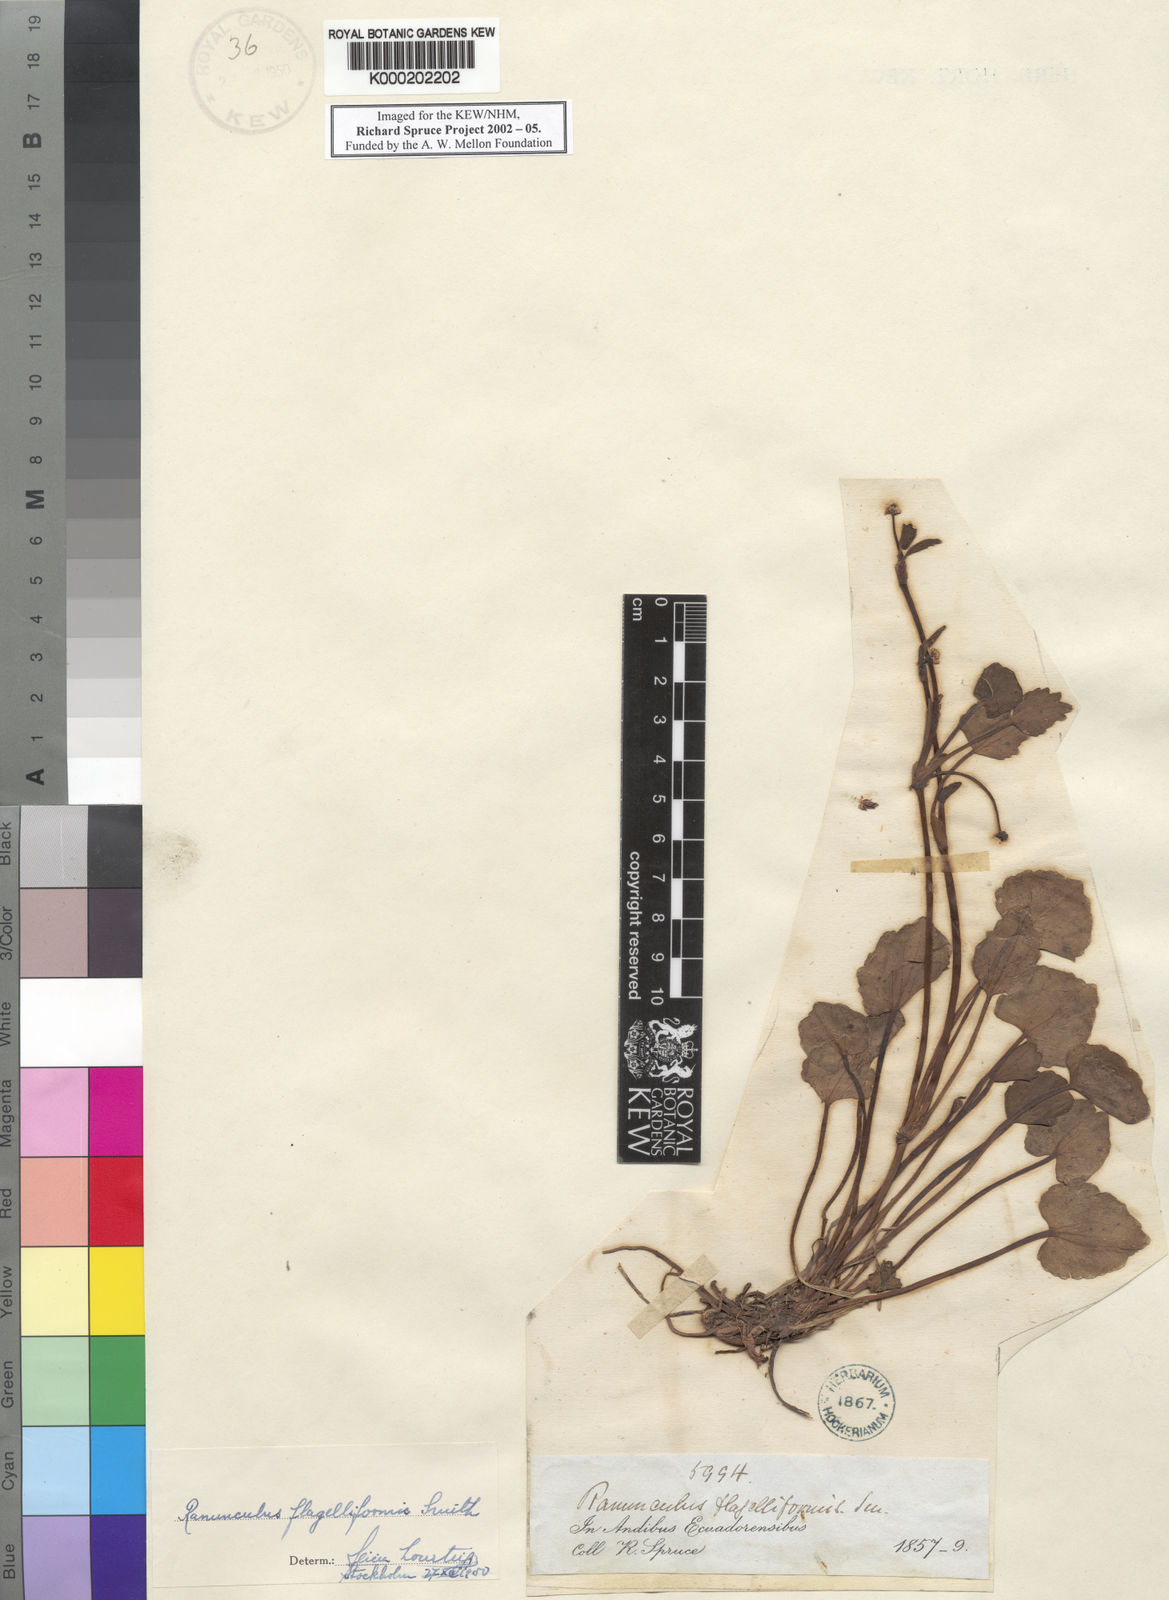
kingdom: Plantae
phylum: Tracheophyta
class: Magnoliopsida
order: Ranunculales
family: Ranunculaceae
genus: Ranunculus
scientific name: Ranunculus flagelliformis
